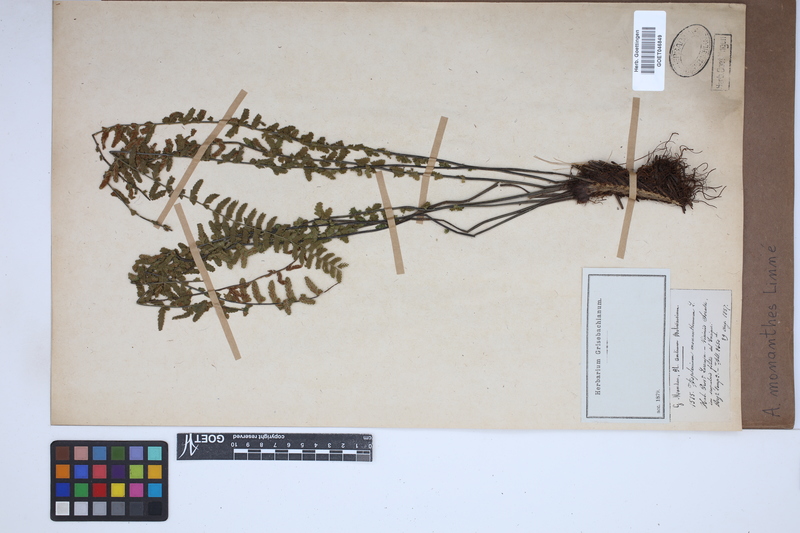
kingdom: Plantae
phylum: Tracheophyta
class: Polypodiopsida
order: Polypodiales
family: Aspleniaceae
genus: Asplenium
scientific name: Asplenium monanthes
